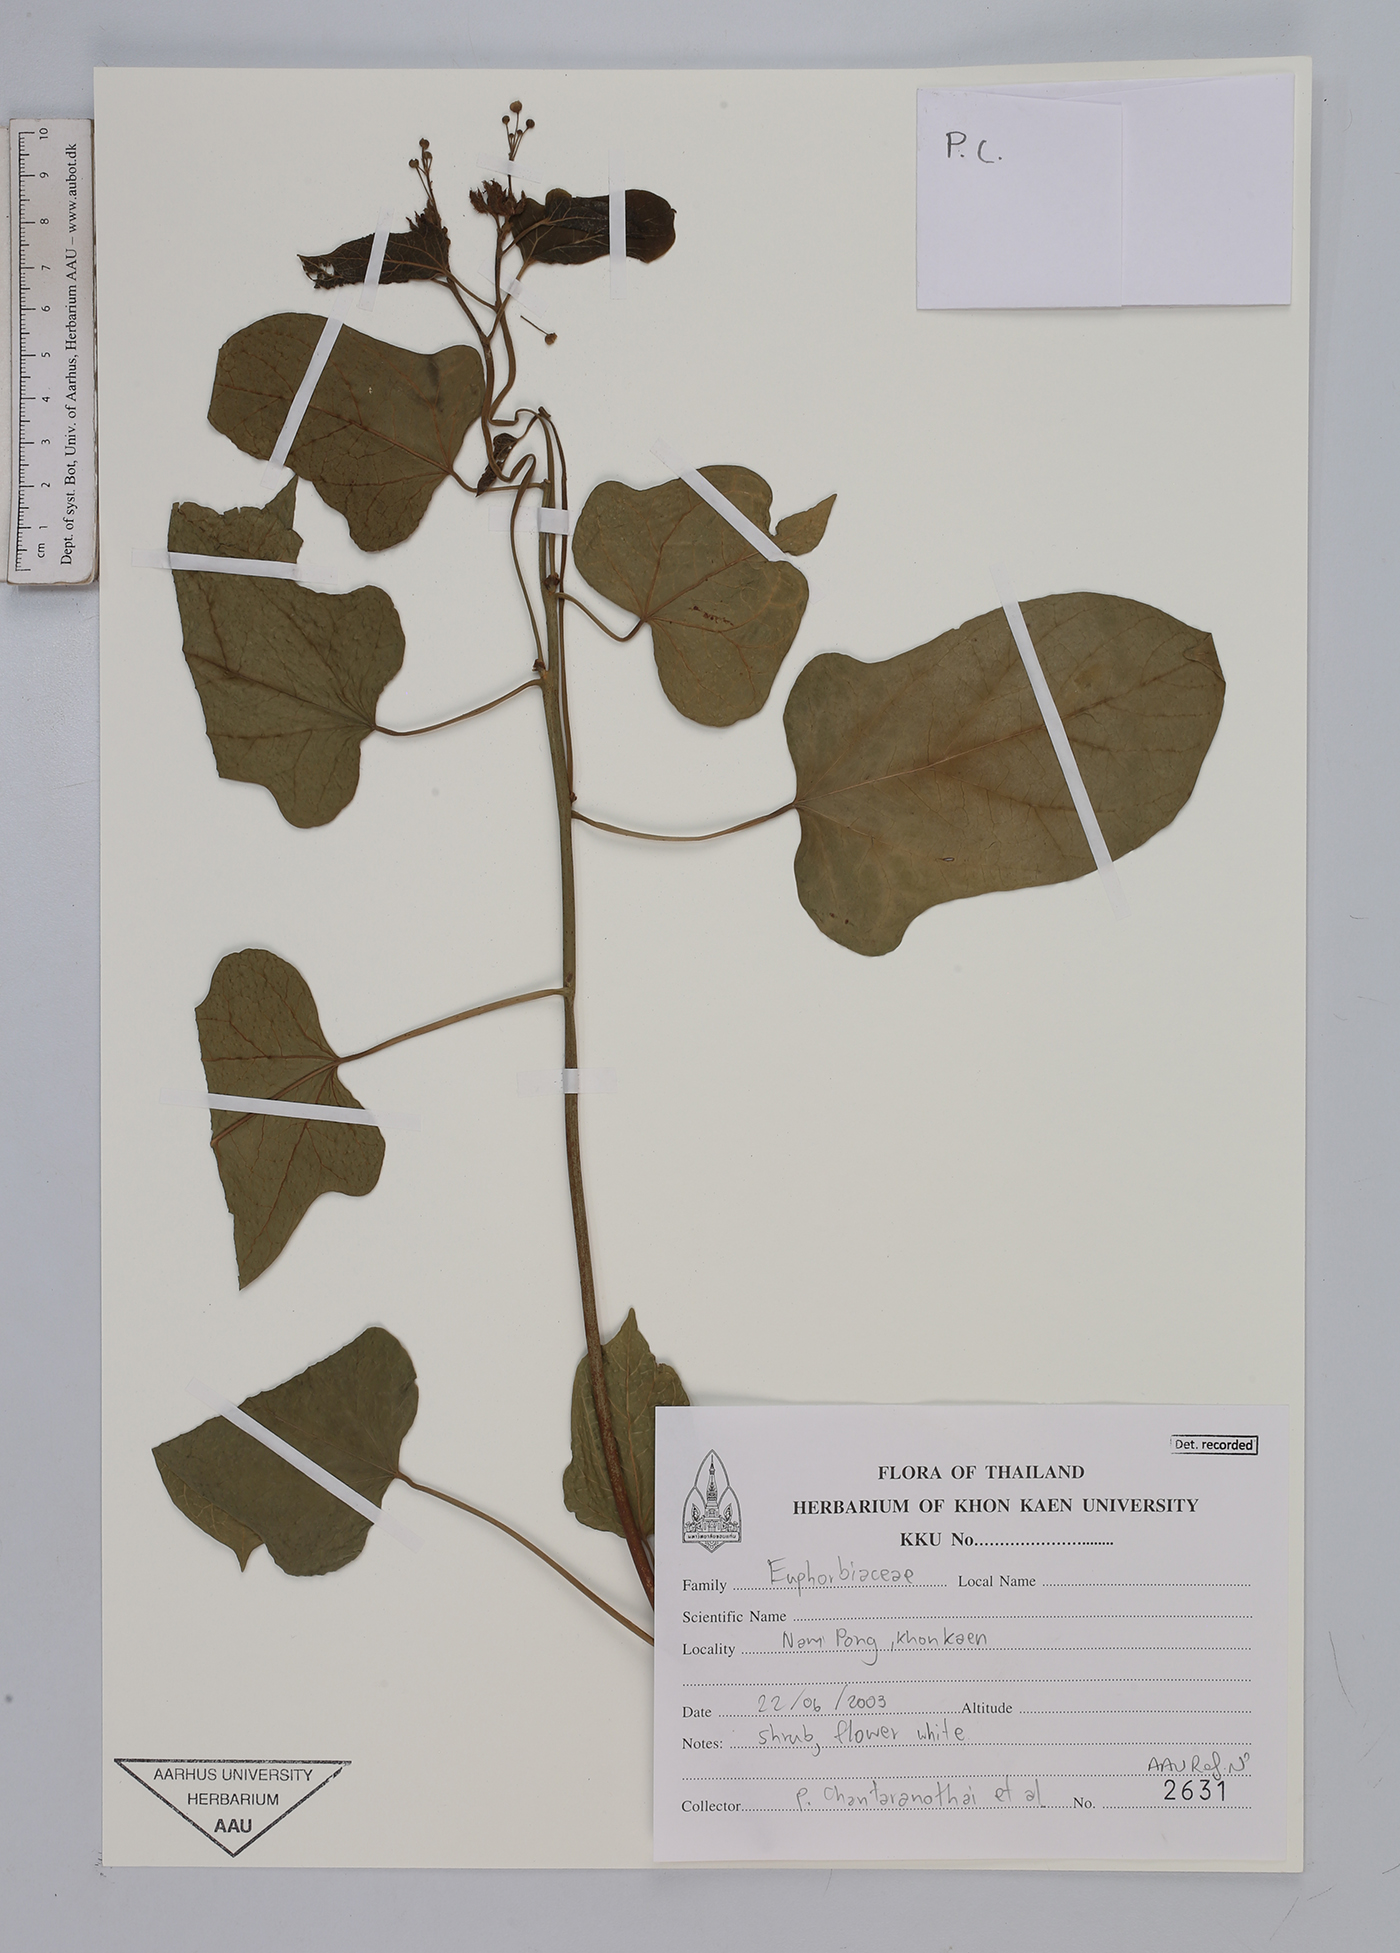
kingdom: Plantae
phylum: Tracheophyta
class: Magnoliopsida
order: Malpighiales
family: Euphorbiaceae
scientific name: Euphorbiaceae
